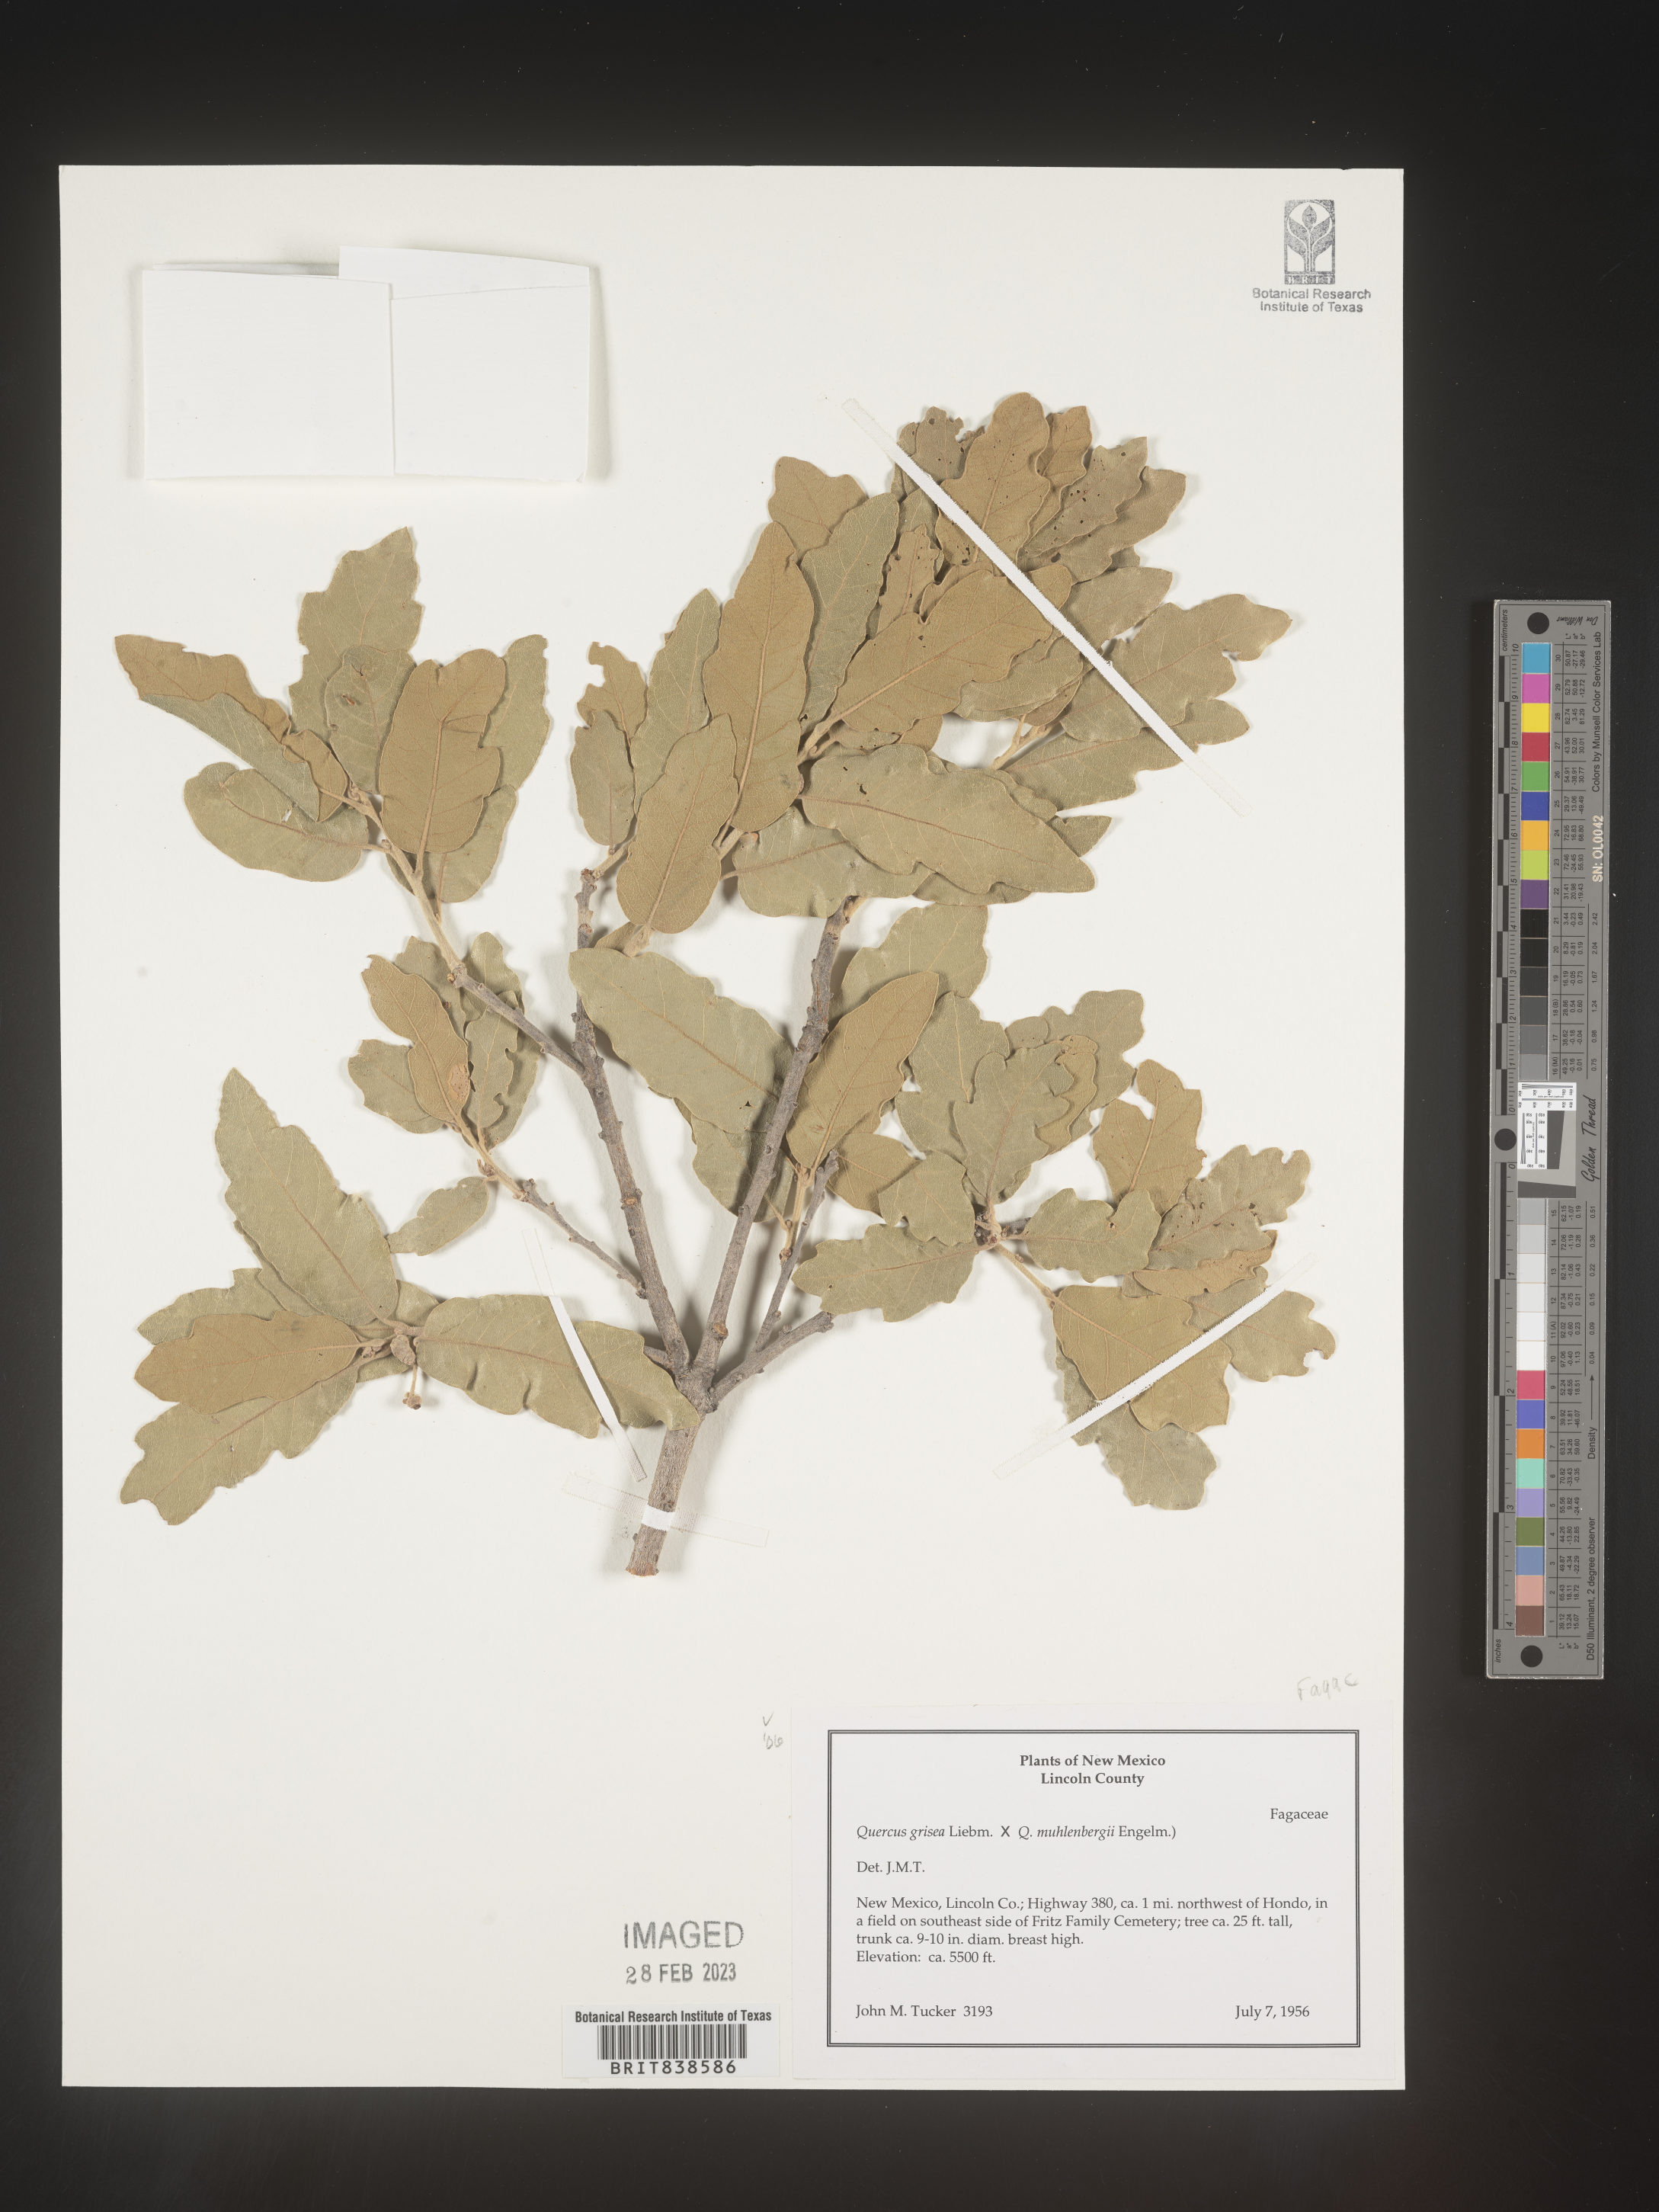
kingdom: Plantae
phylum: Tracheophyta
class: Magnoliopsida
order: Fagales
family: Fagaceae
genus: Quercus
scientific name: Quercus grisea
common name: Gray oak
